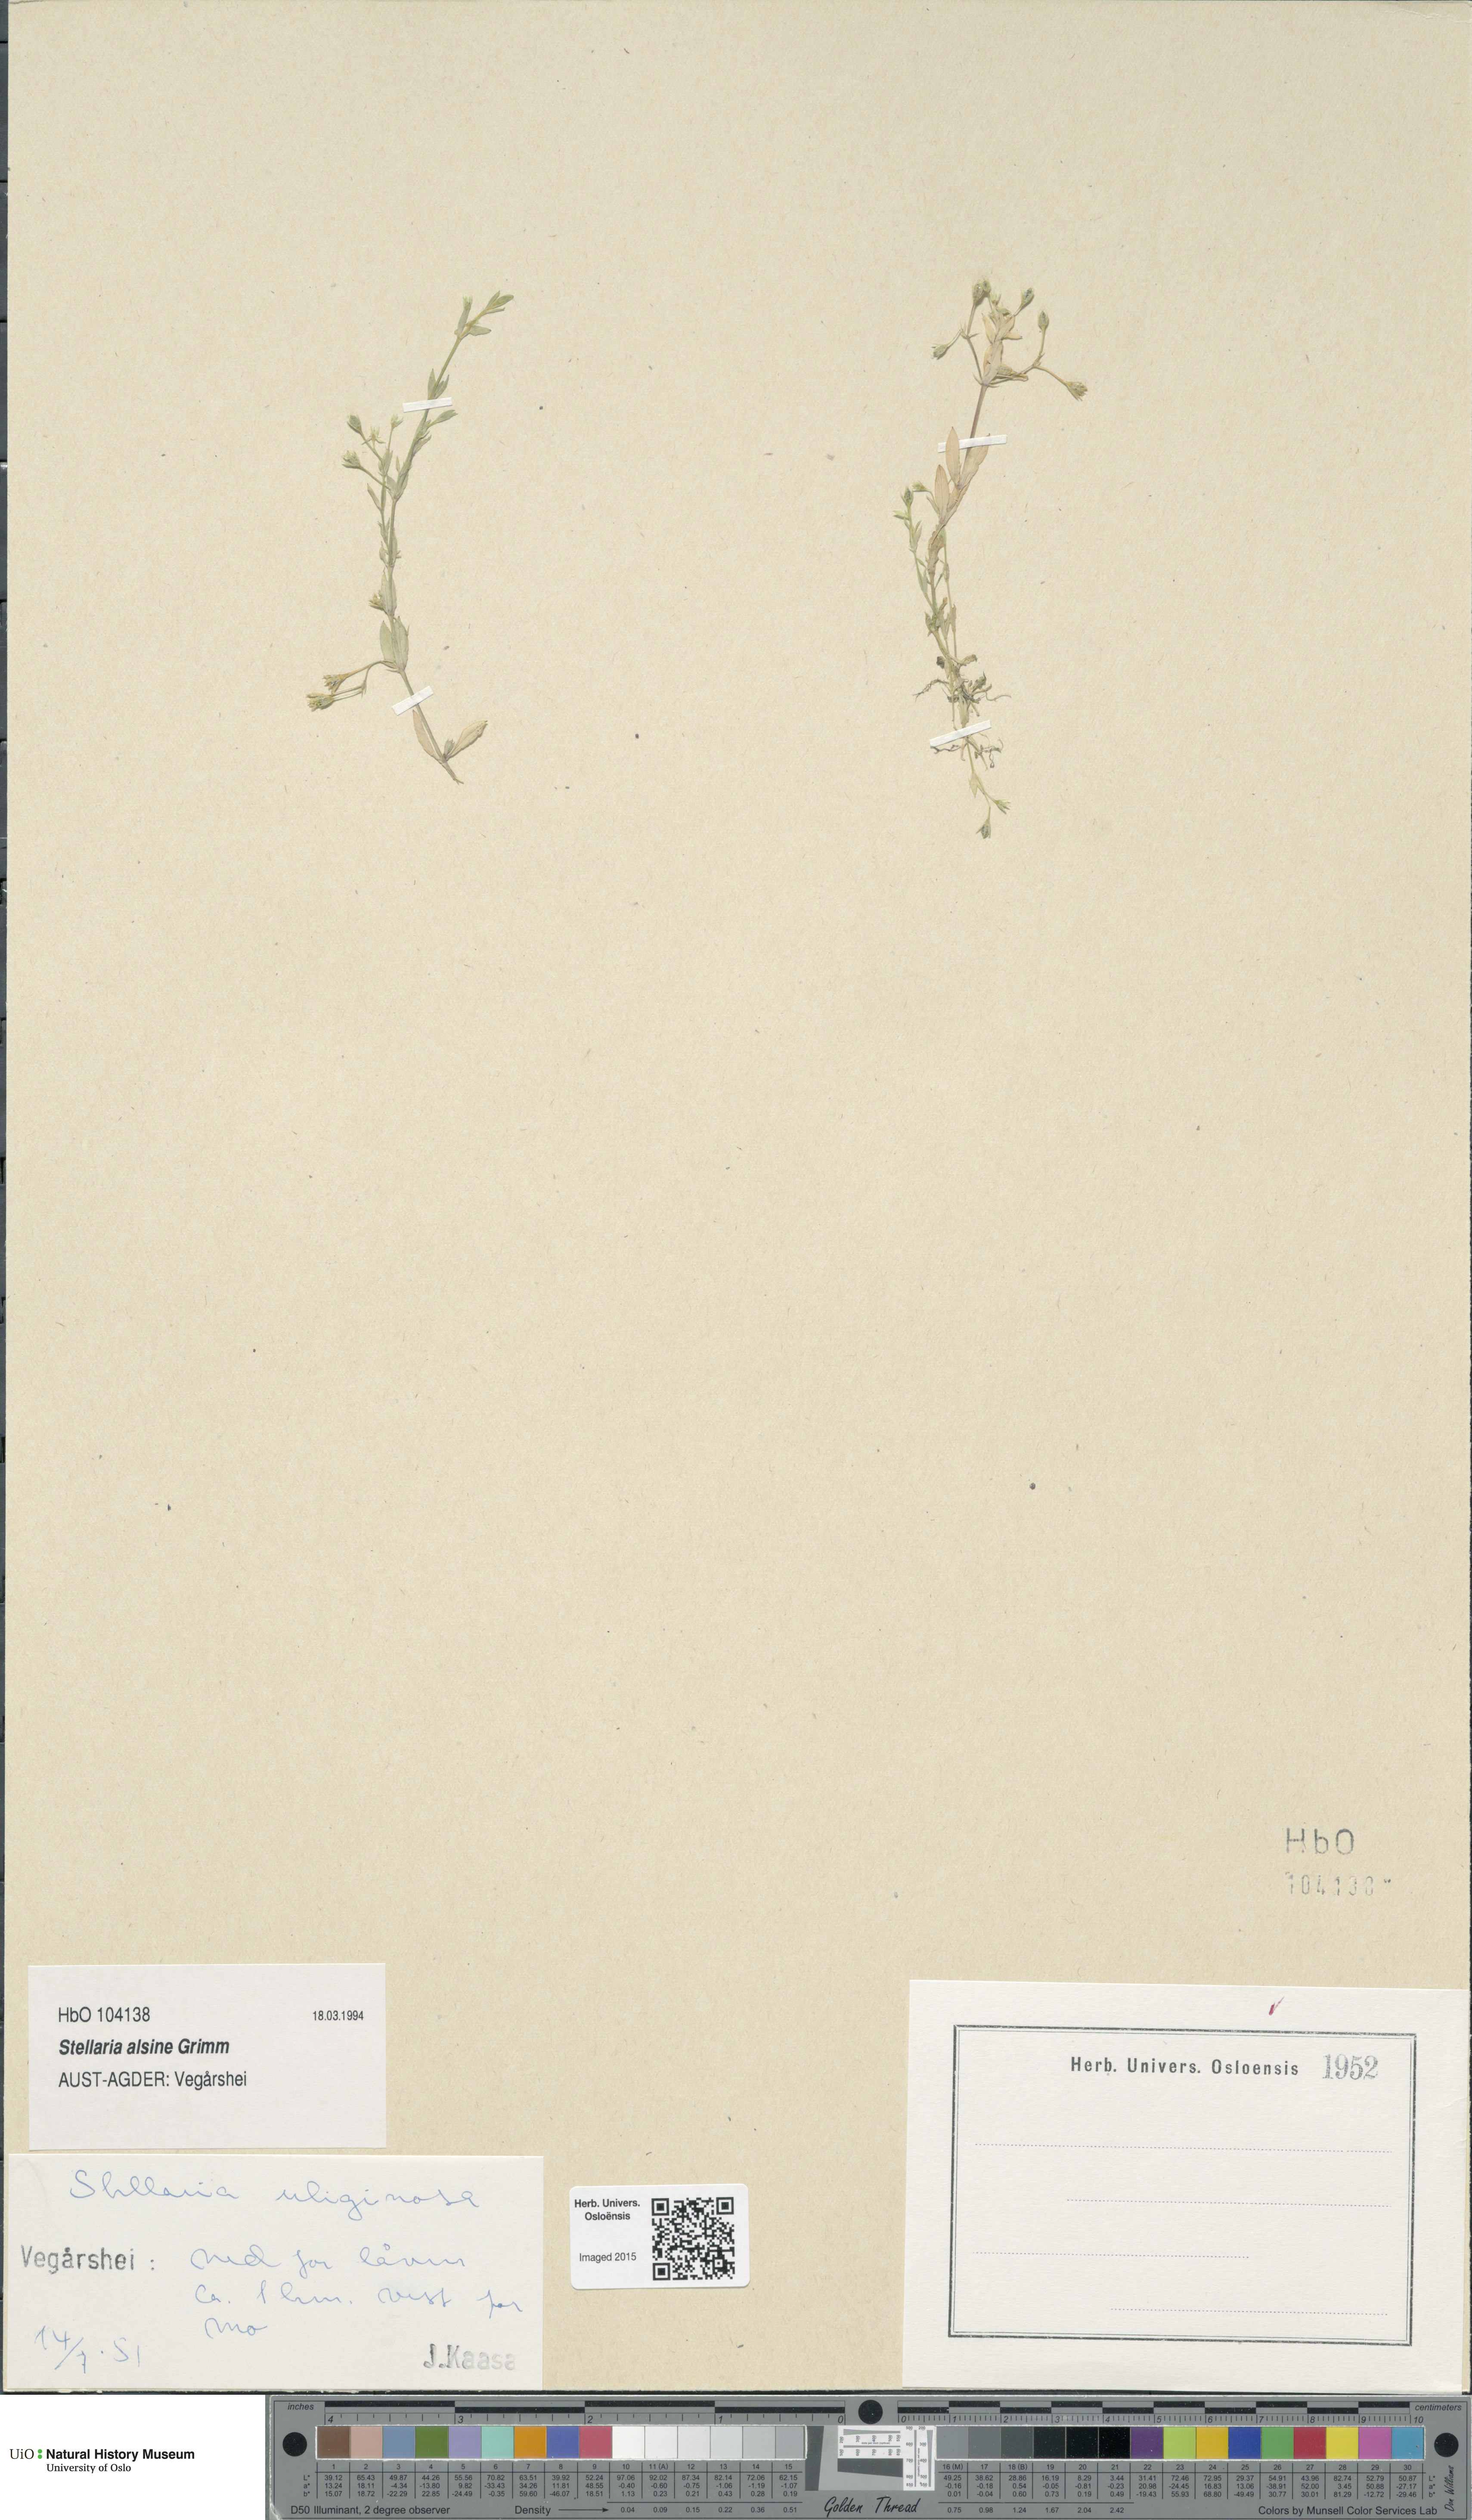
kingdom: Plantae
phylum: Tracheophyta
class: Magnoliopsida
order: Caryophyllales
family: Caryophyllaceae
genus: Stellaria
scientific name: Stellaria alsine
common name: Bog stitchwort
